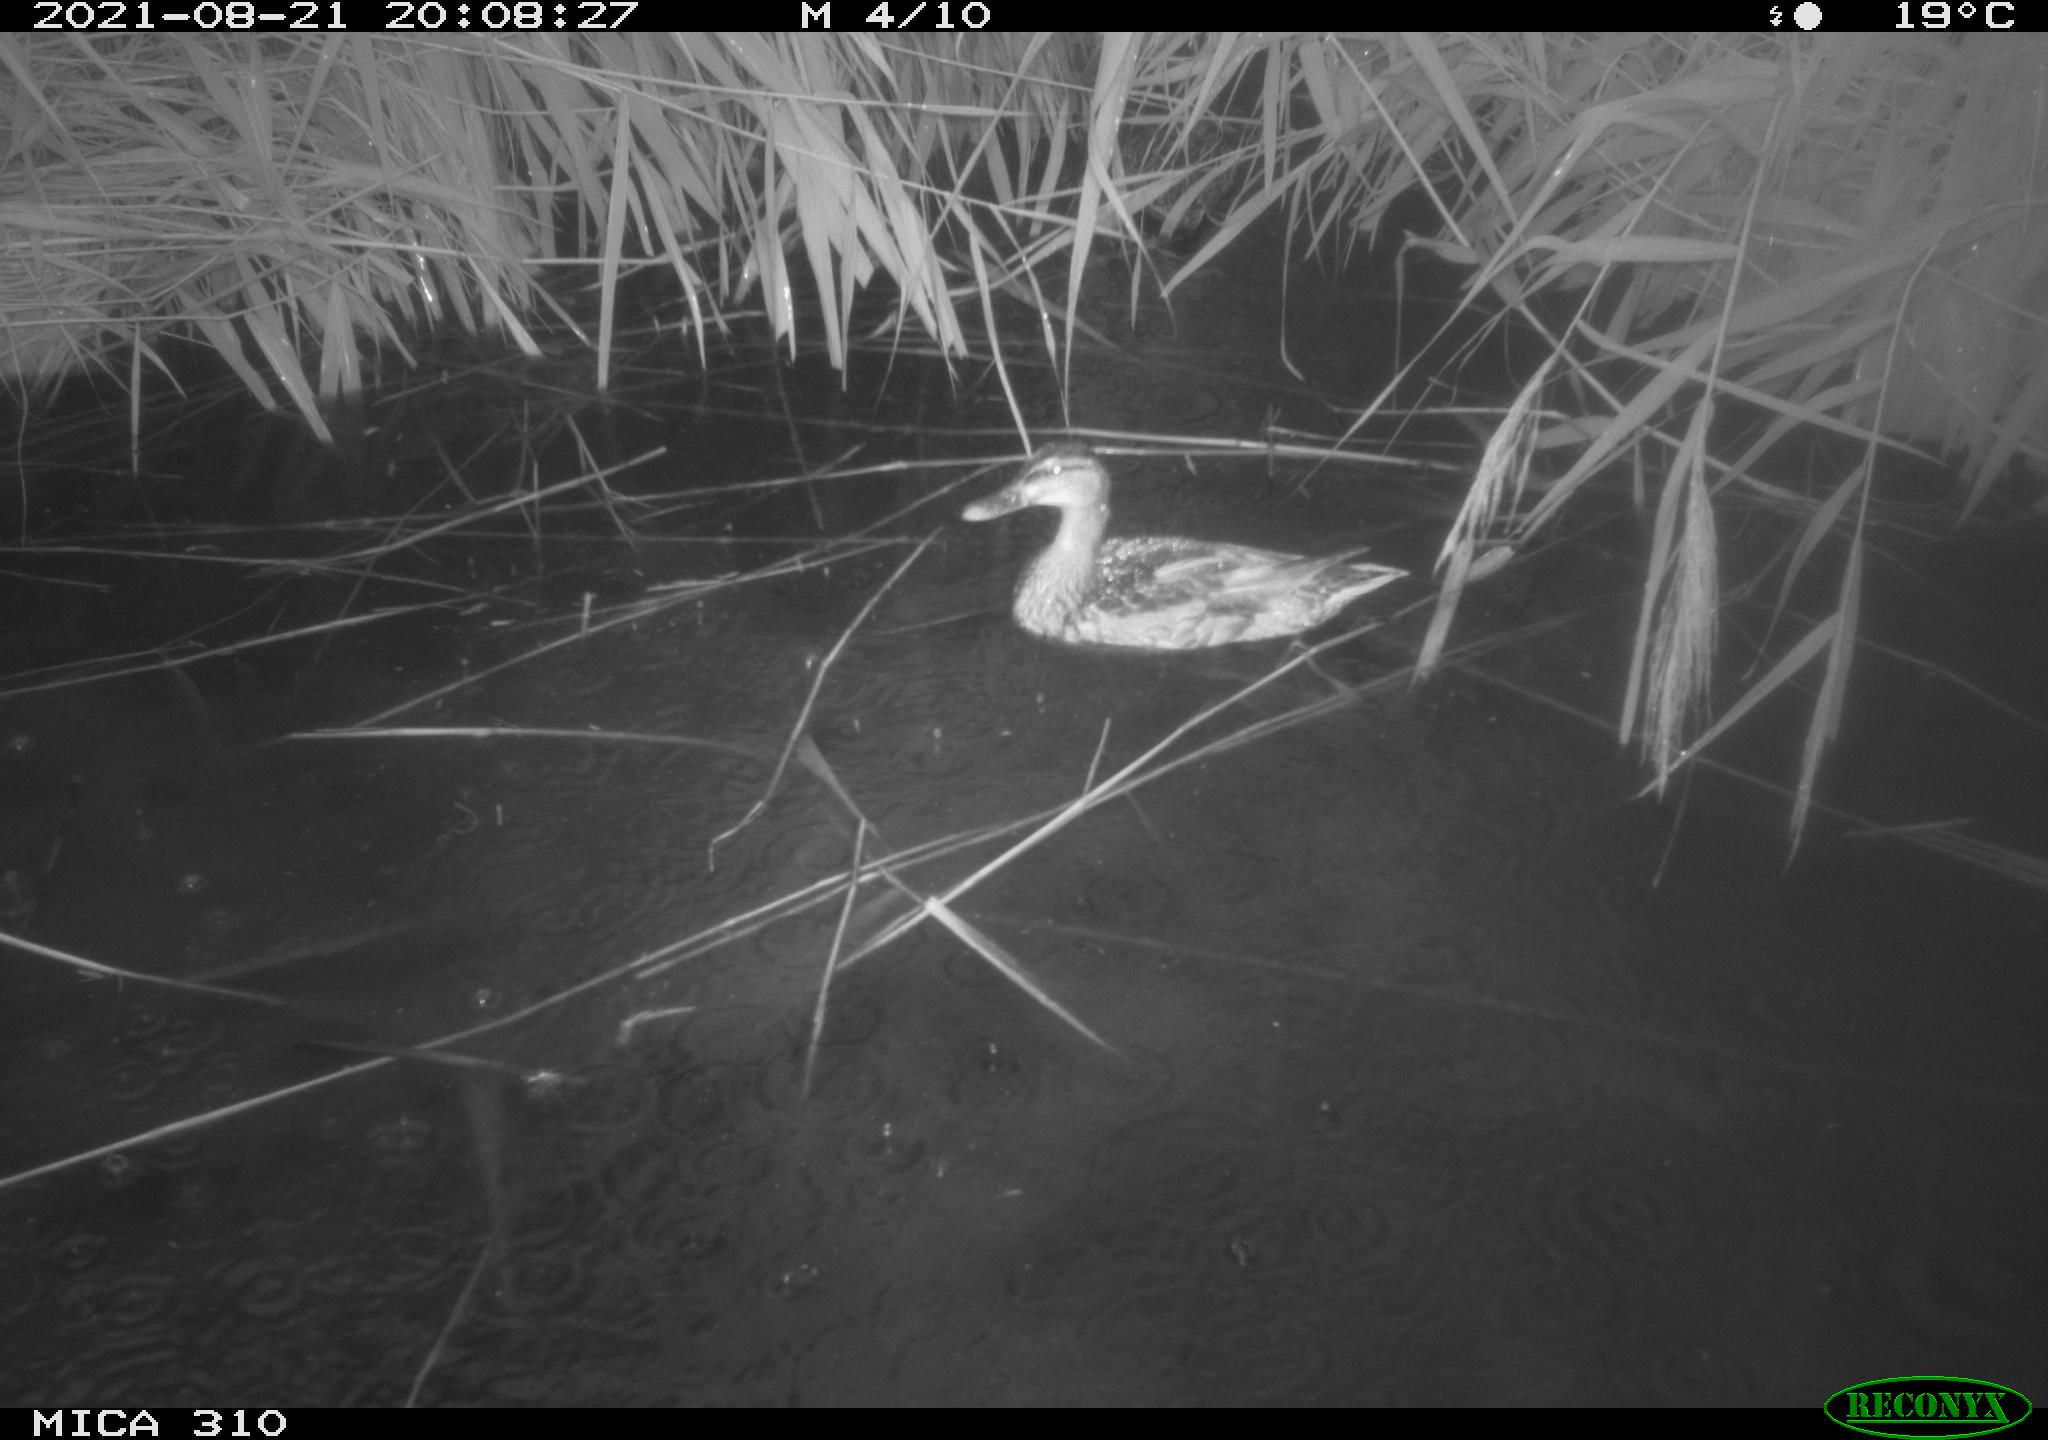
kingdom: Animalia
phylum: Chordata
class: Aves
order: Anseriformes
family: Anatidae
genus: Anas
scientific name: Anas platyrhynchos
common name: Mallard
